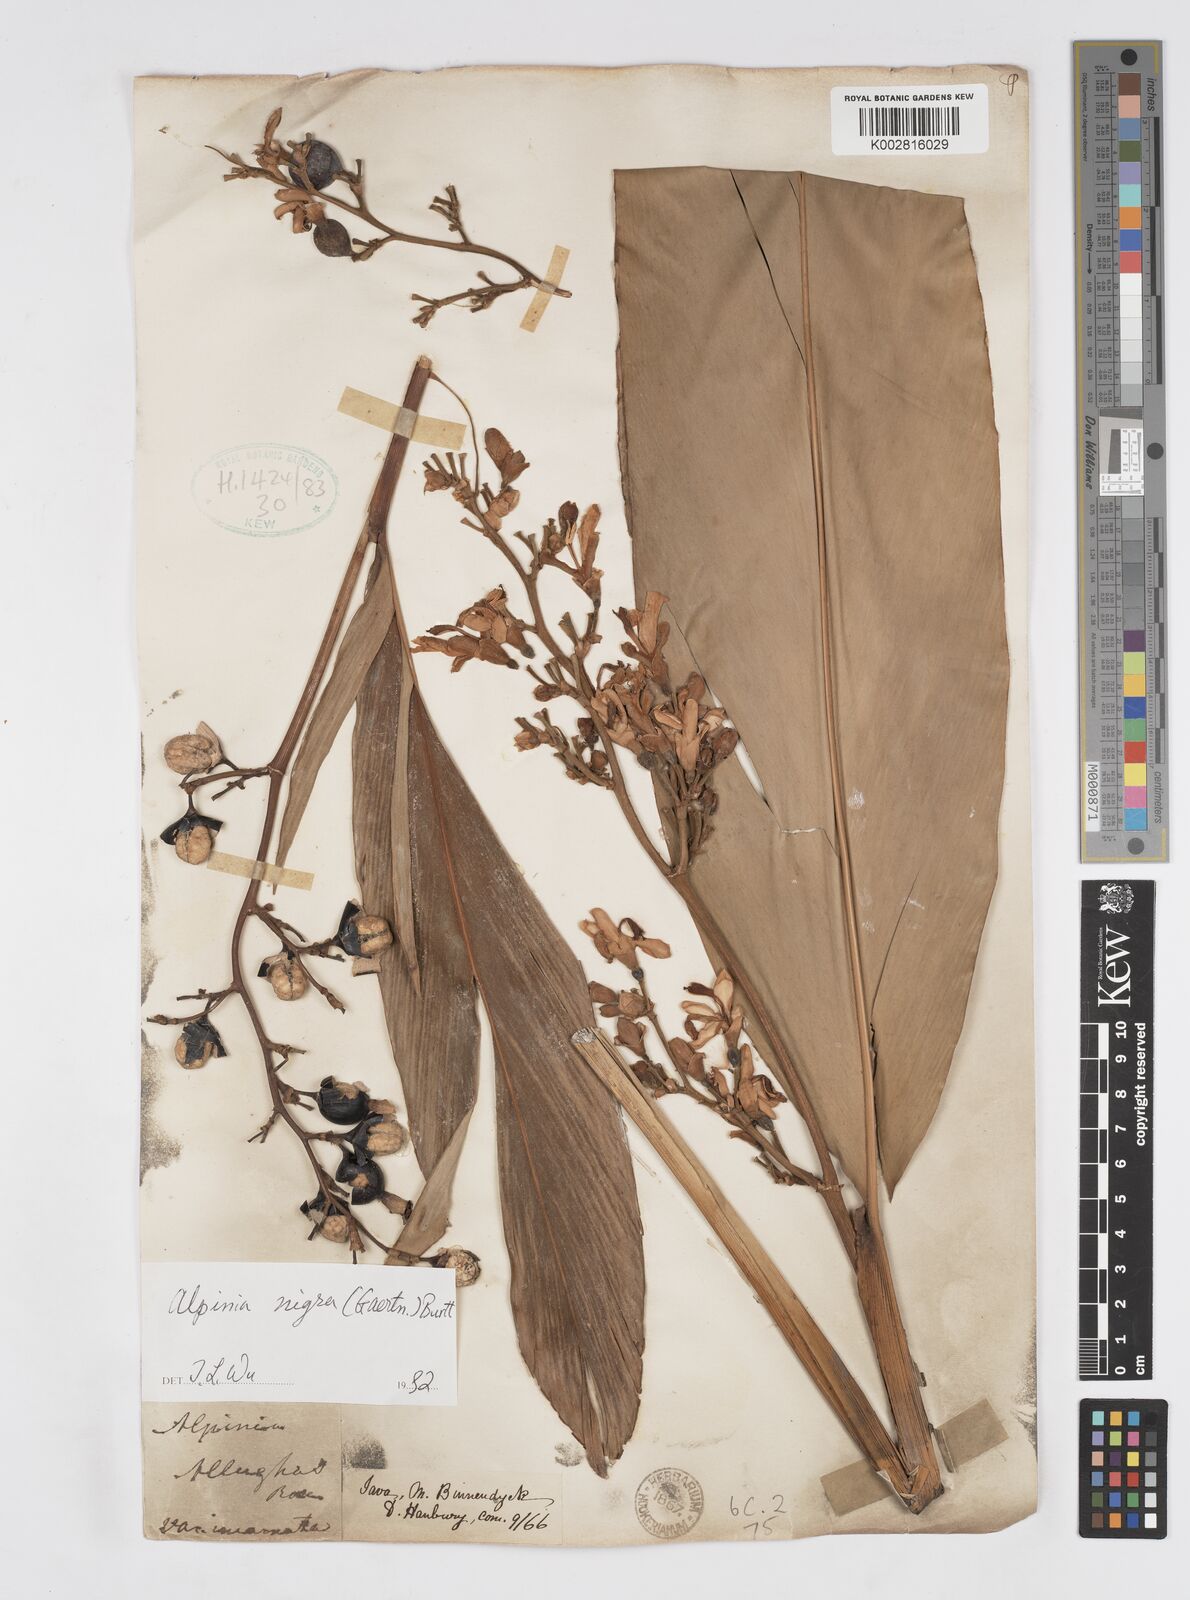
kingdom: Plantae
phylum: Tracheophyta
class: Liliopsida
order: Zingiberales
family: Zingiberaceae
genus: Alpinia
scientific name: Alpinia nigra
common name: Black fruited galanga
